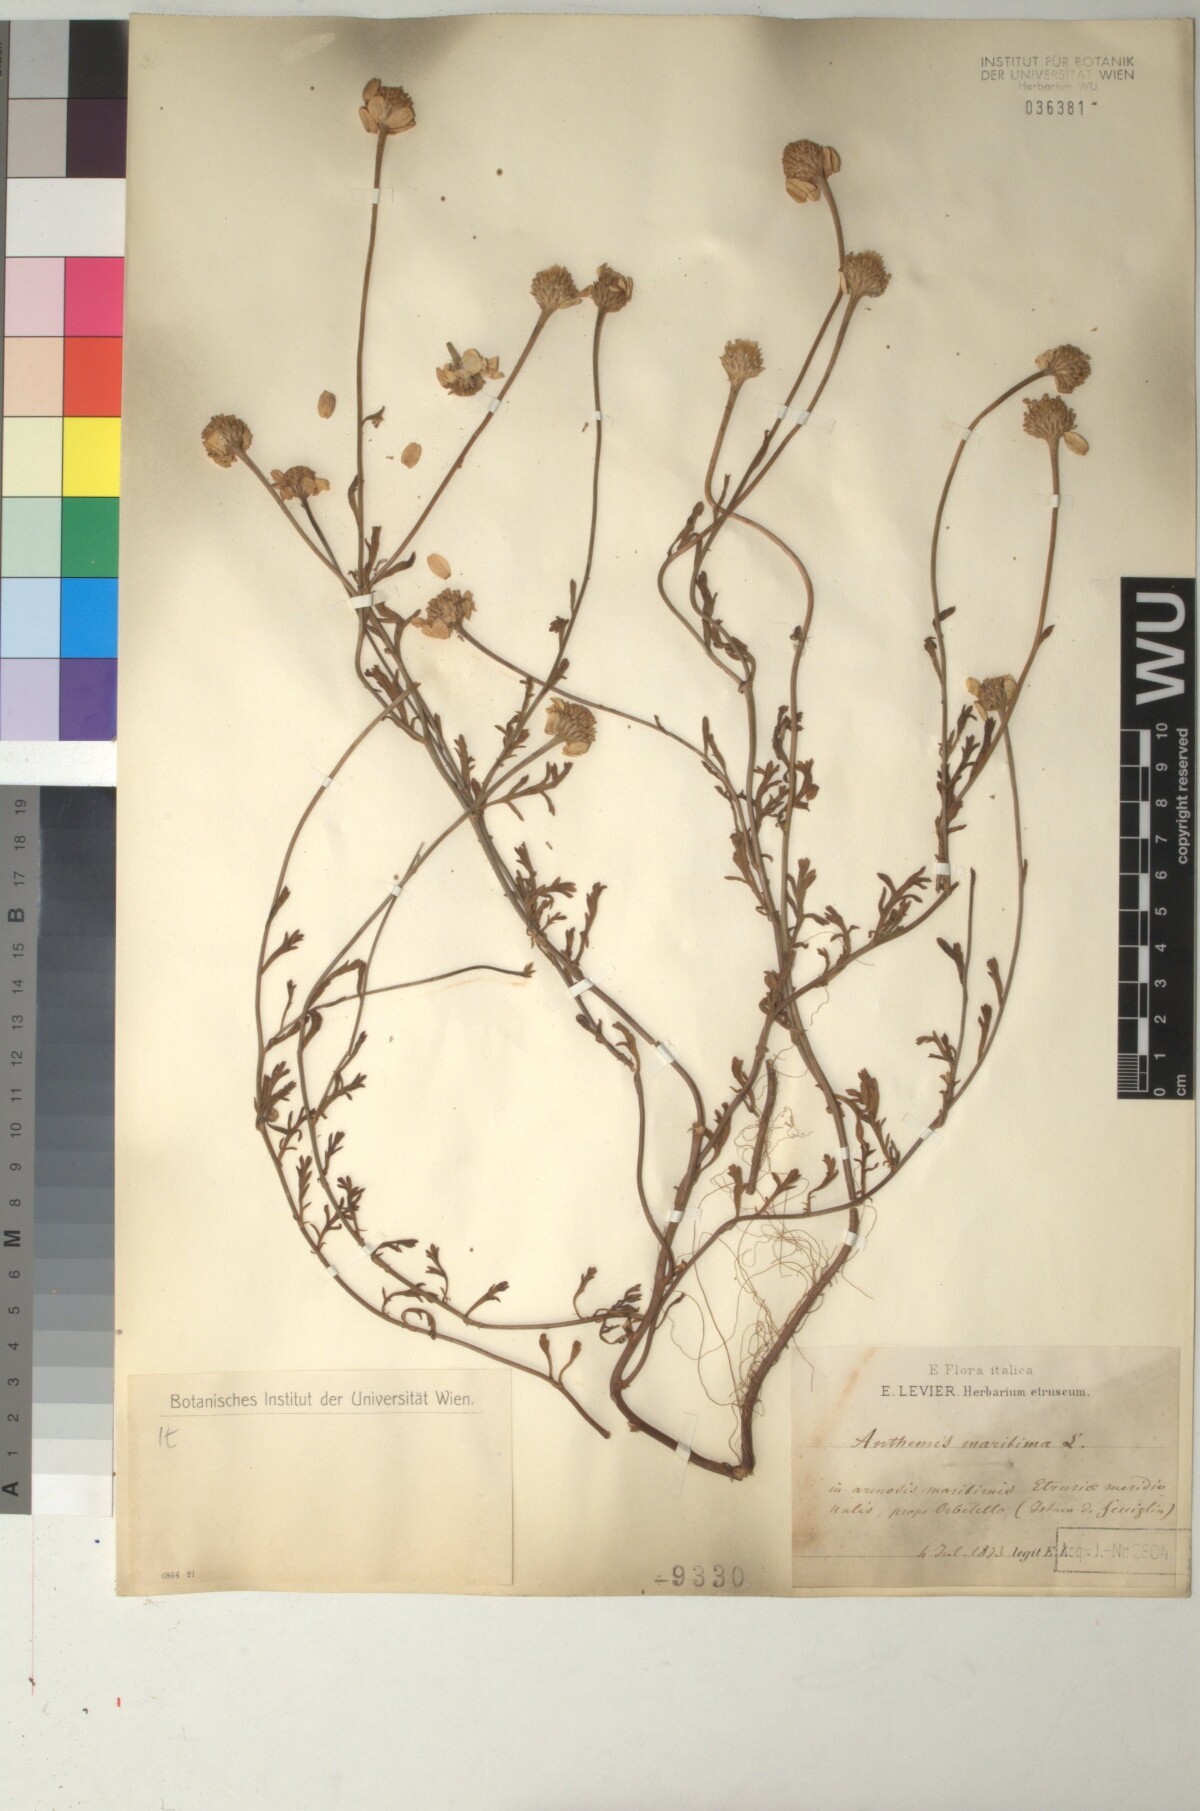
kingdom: Plantae
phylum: Tracheophyta
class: Magnoliopsida
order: Asterales
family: Asteraceae
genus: Anthemis
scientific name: Anthemis maritima
